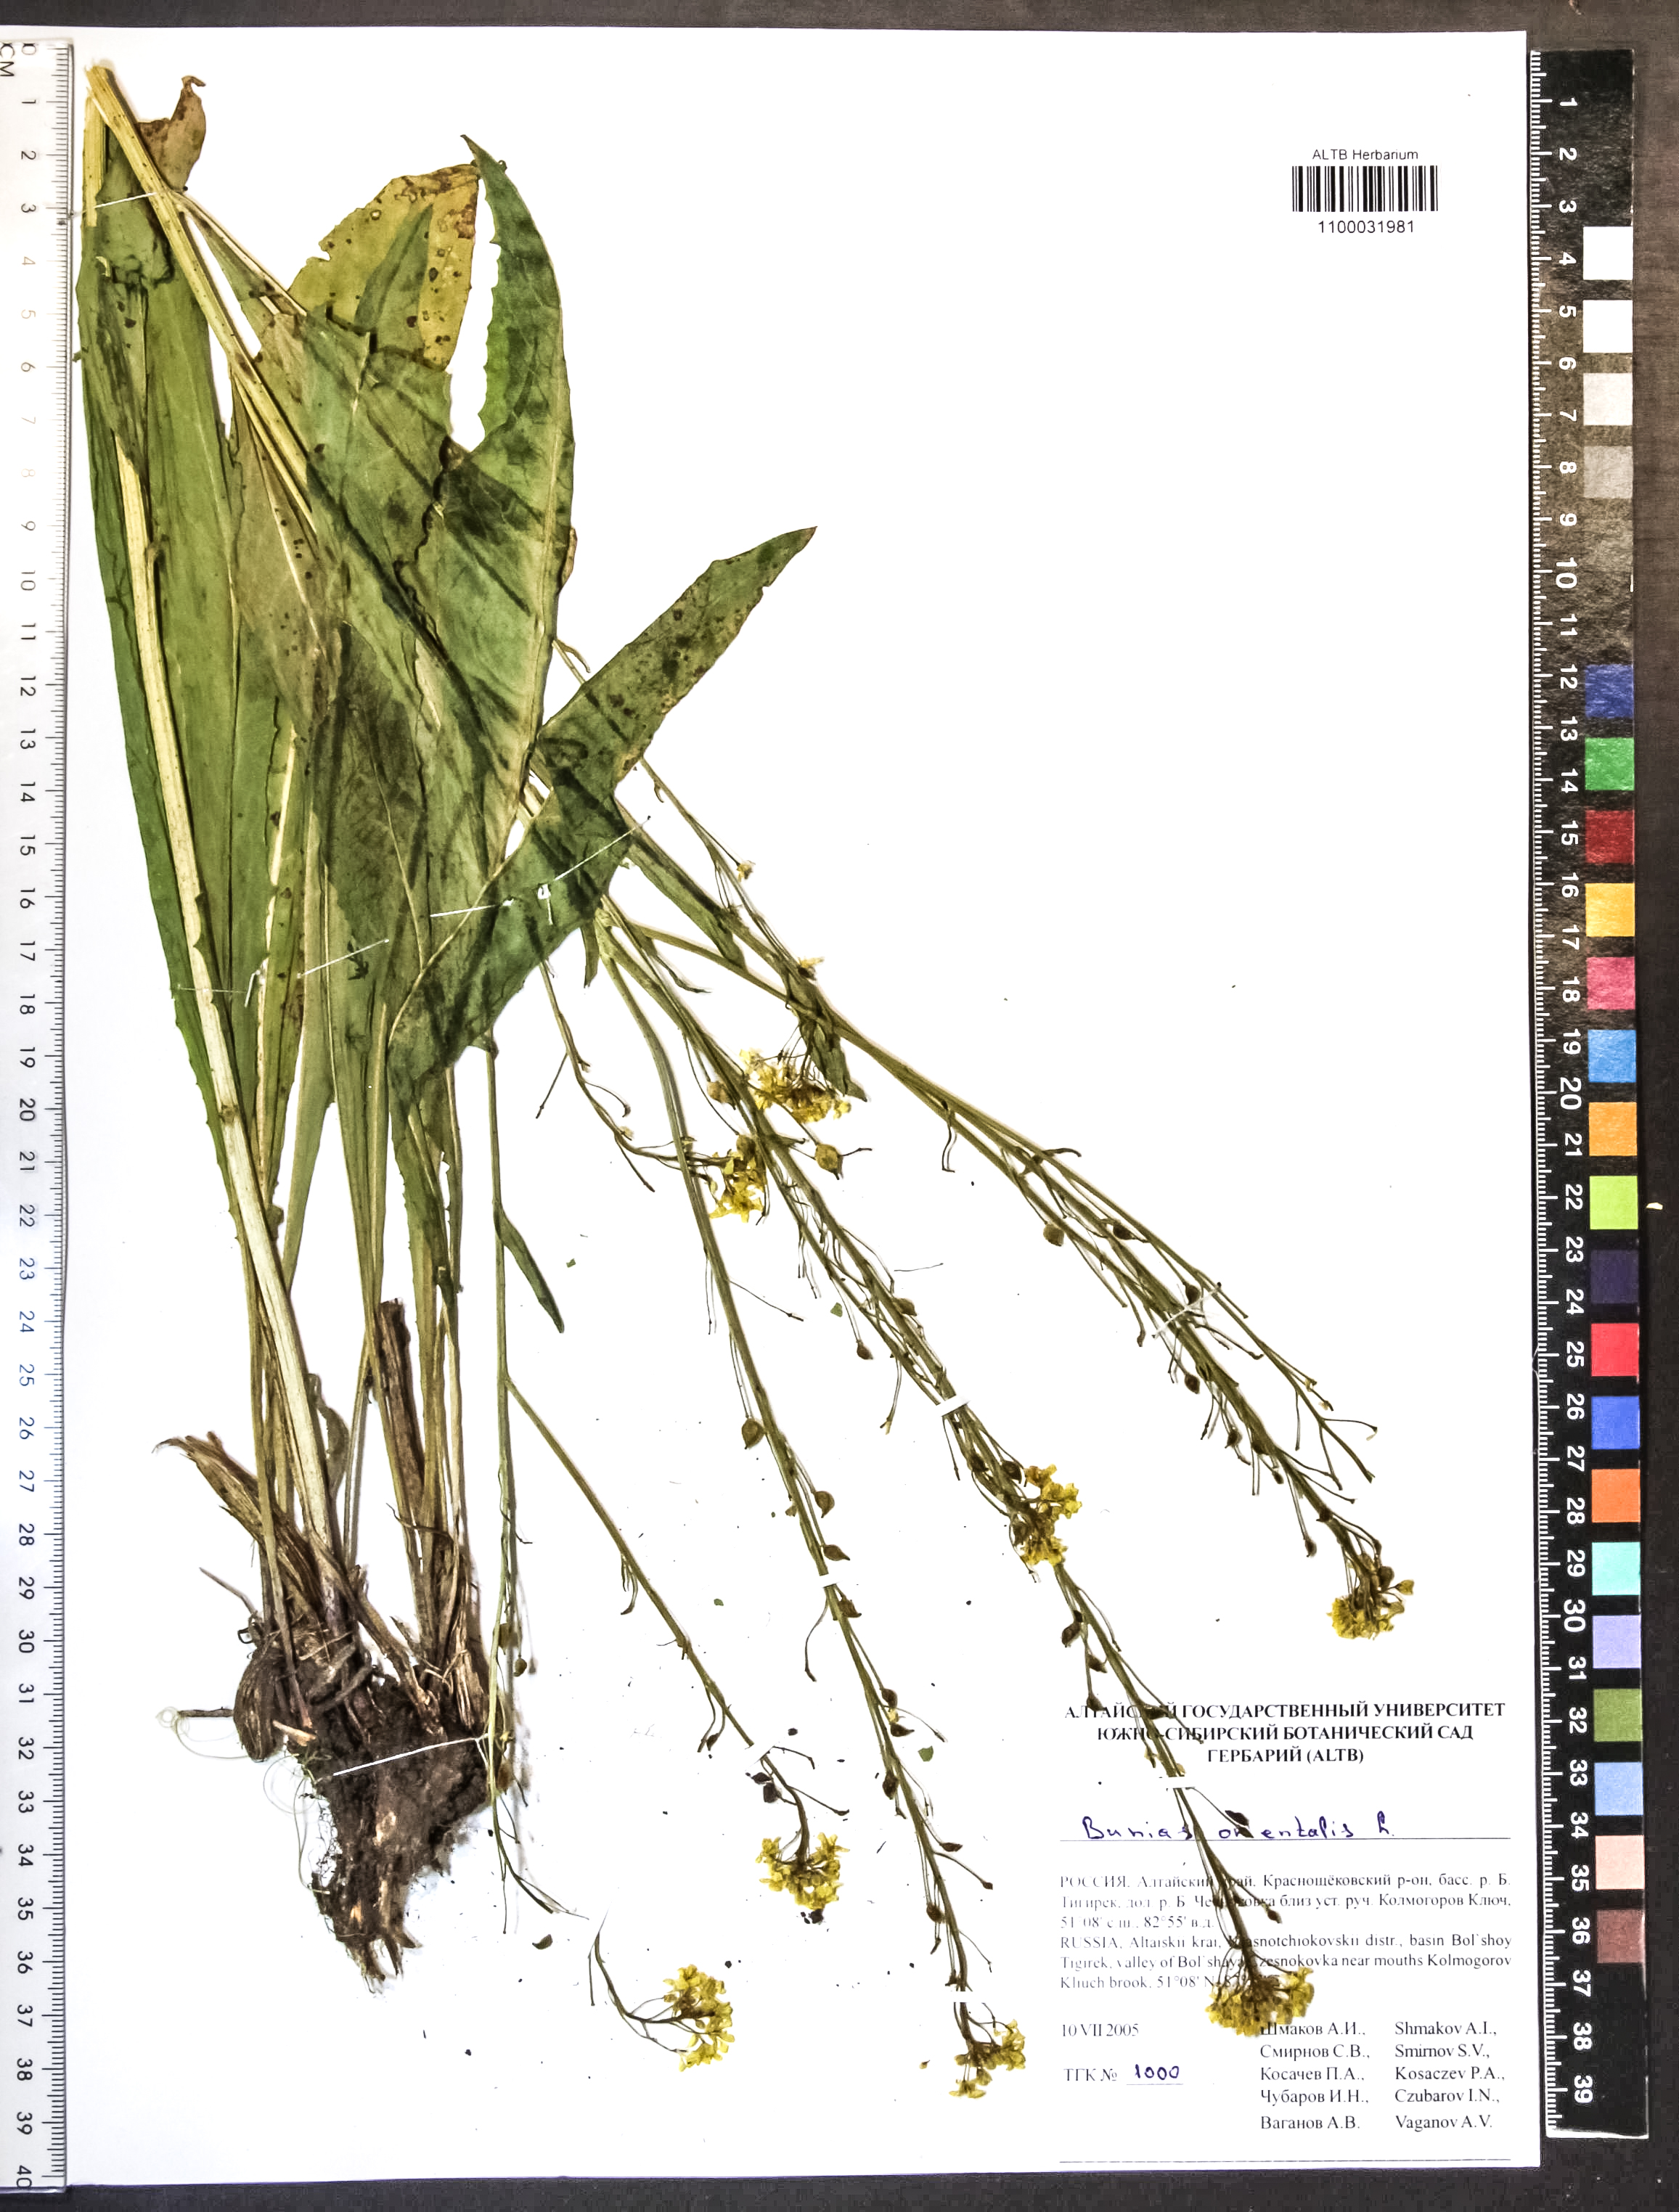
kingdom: Plantae
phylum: Tracheophyta
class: Magnoliopsida
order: Brassicales
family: Brassicaceae
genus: Bunias
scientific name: Bunias orientalis
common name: Warty-cabbage
